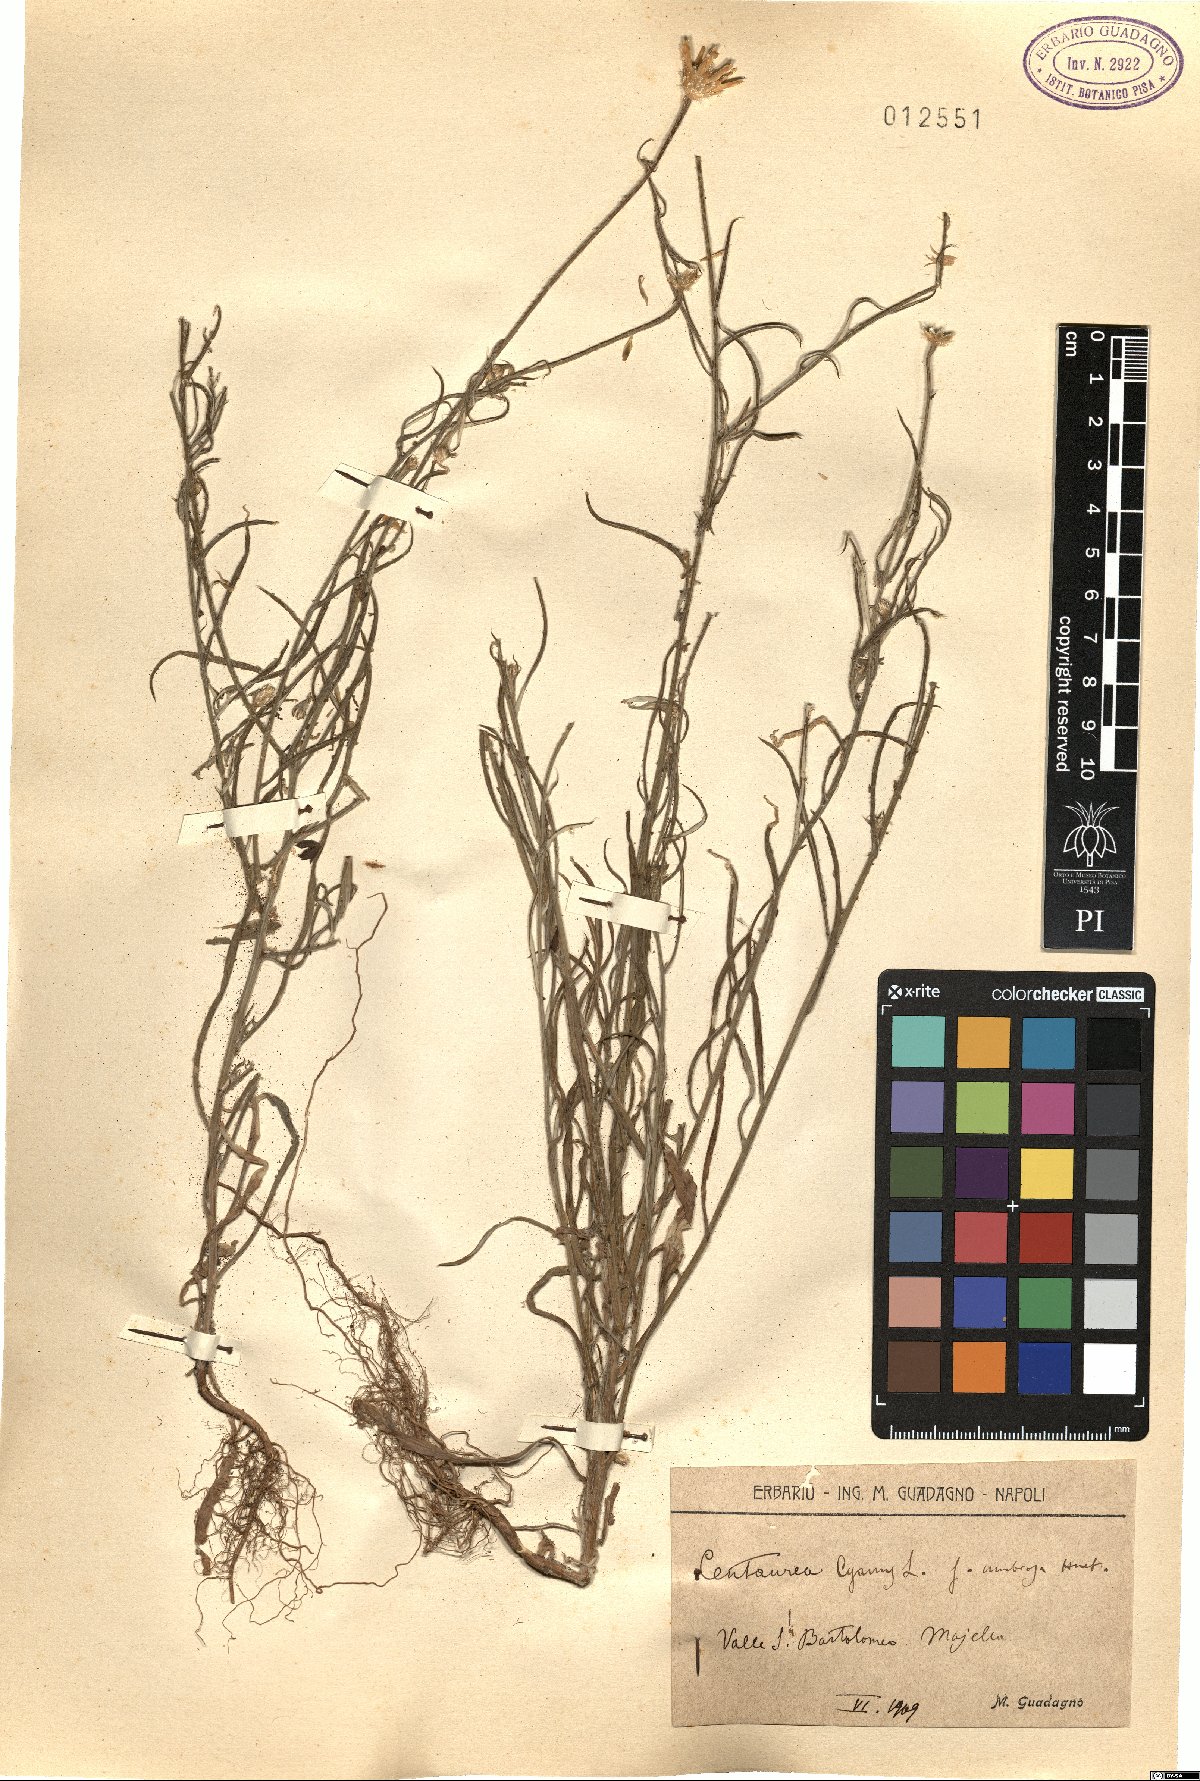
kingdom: Plantae
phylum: Tracheophyta
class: Magnoliopsida
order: Asterales
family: Asteraceae
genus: Centaurea
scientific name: Centaurea cyanus
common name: Cornflower
